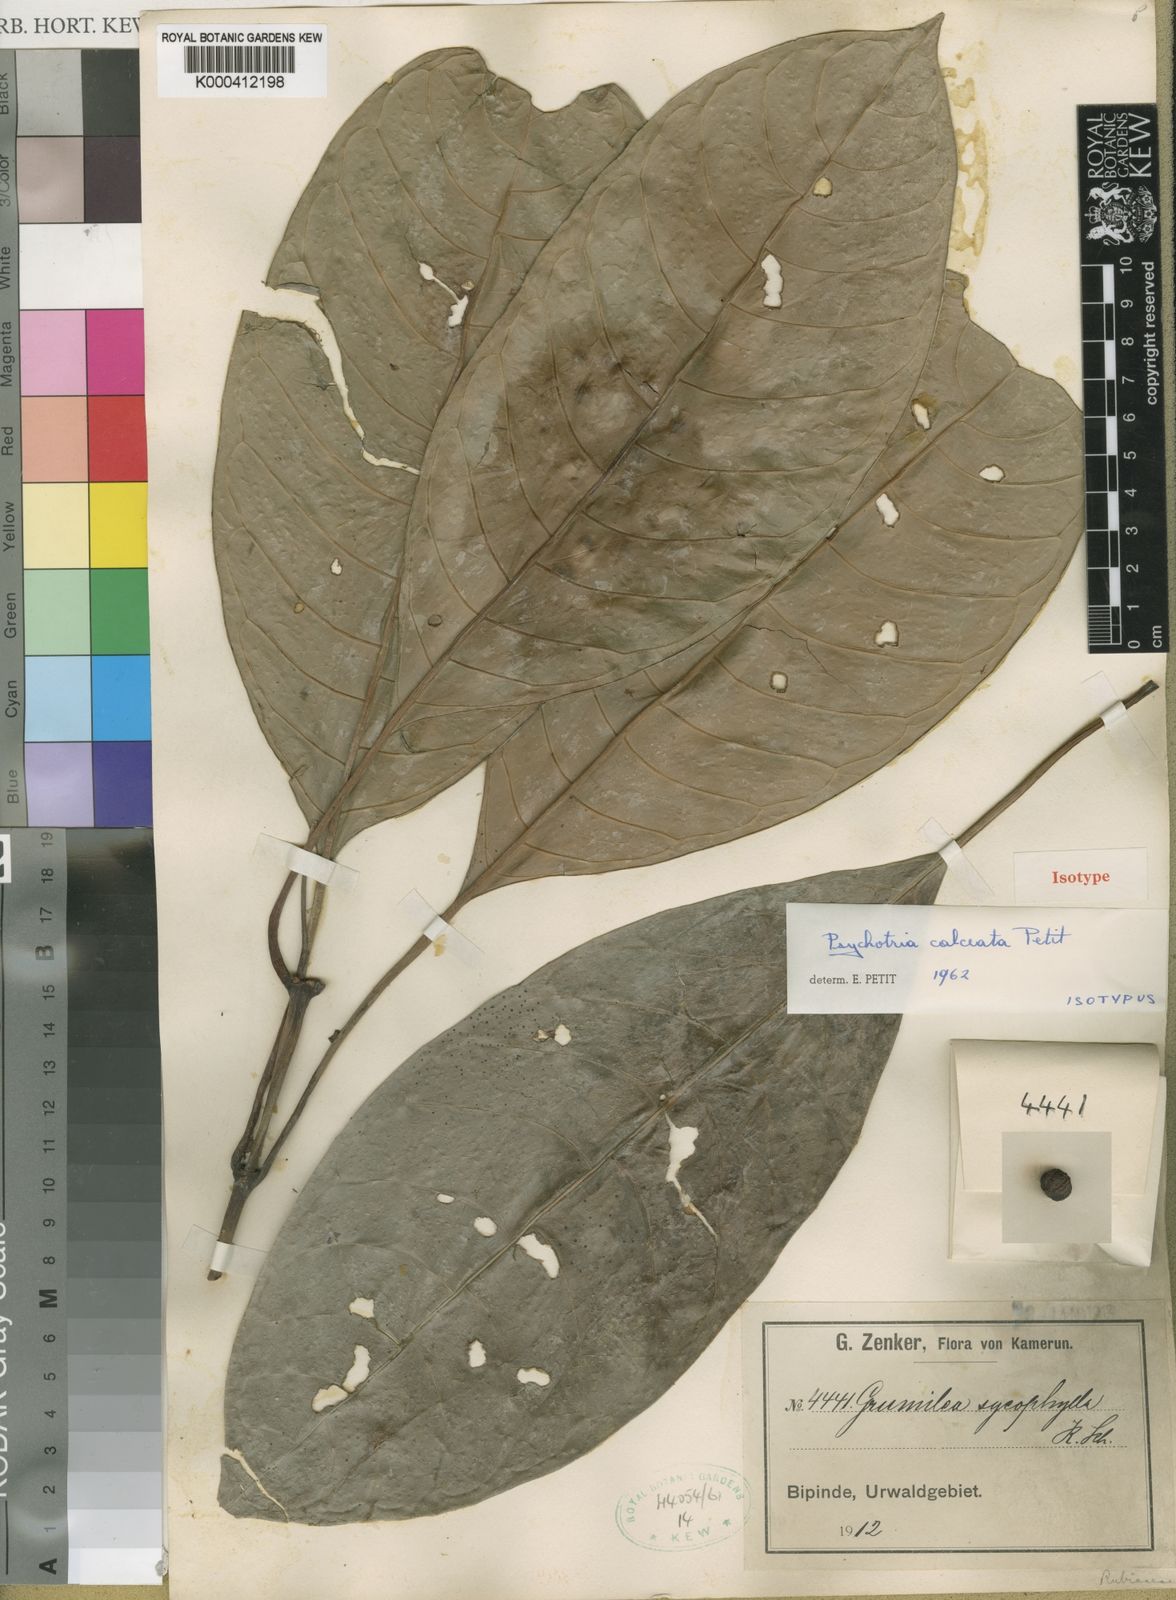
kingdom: Plantae
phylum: Tracheophyta
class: Magnoliopsida
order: Gentianales
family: Rubiaceae
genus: Psychotria
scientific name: Psychotria calceata
